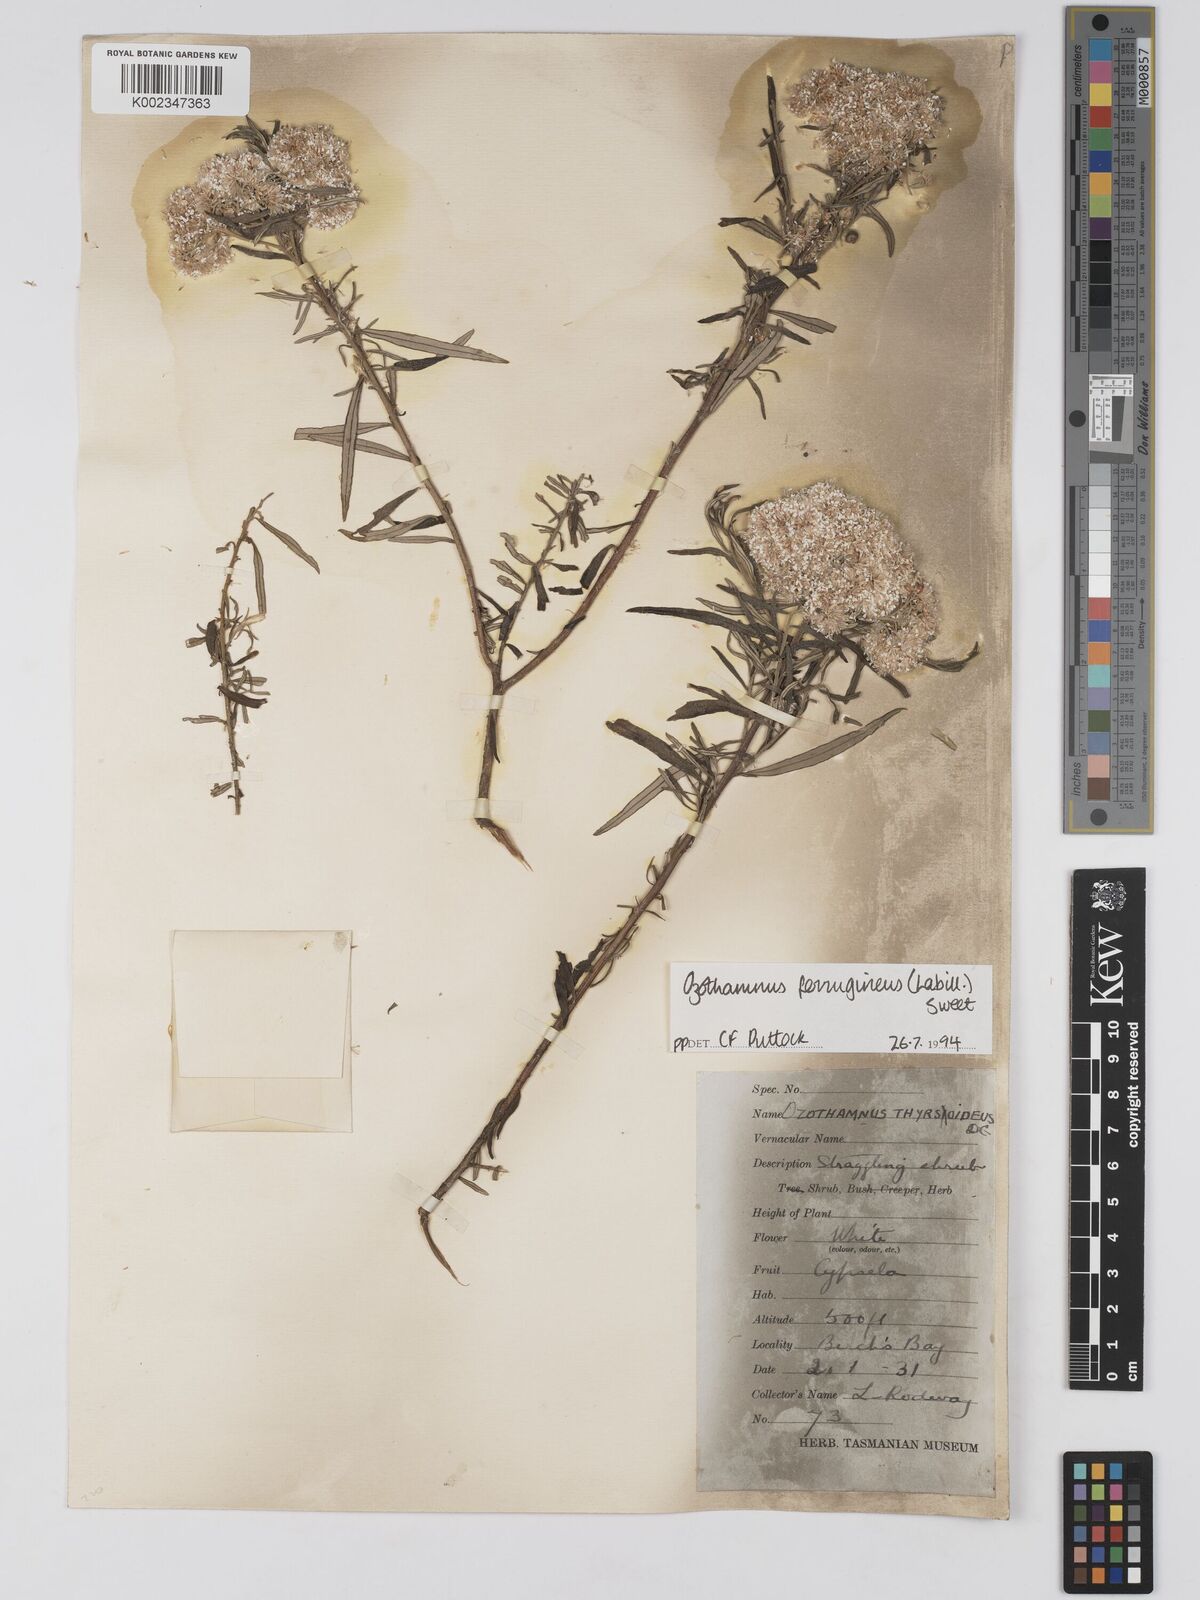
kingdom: Plantae
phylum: Tracheophyta
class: Magnoliopsida
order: Asterales
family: Asteraceae
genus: Ozothamnus
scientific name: Ozothamnus argophyllus
